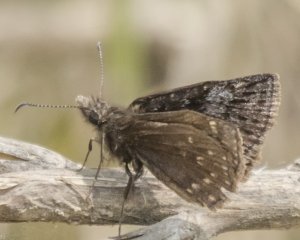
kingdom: Animalia
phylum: Arthropoda
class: Insecta
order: Lepidoptera
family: Hesperiidae
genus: Erynnis
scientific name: Erynnis icelus
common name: Dreamy Duskywing
